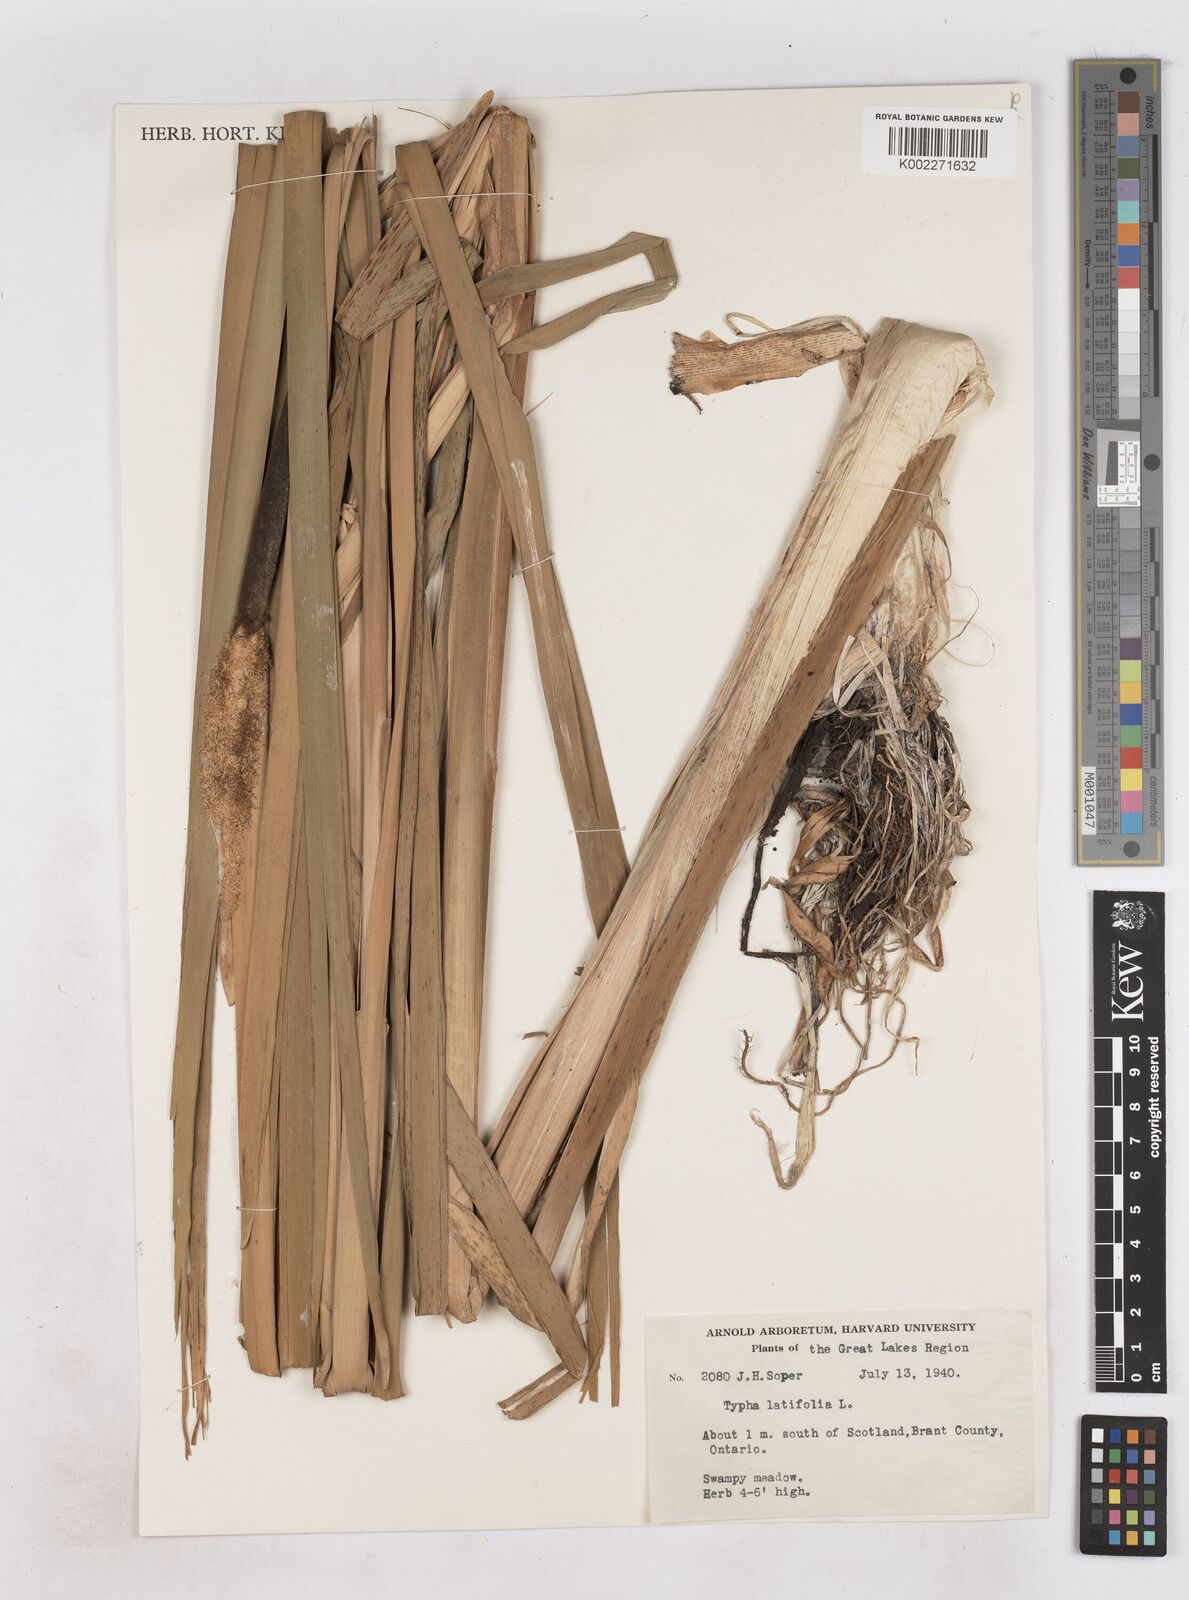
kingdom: Plantae
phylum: Tracheophyta
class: Liliopsida
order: Poales
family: Typhaceae
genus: Typha
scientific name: Typha latifolia
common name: Broadleaf cattail
